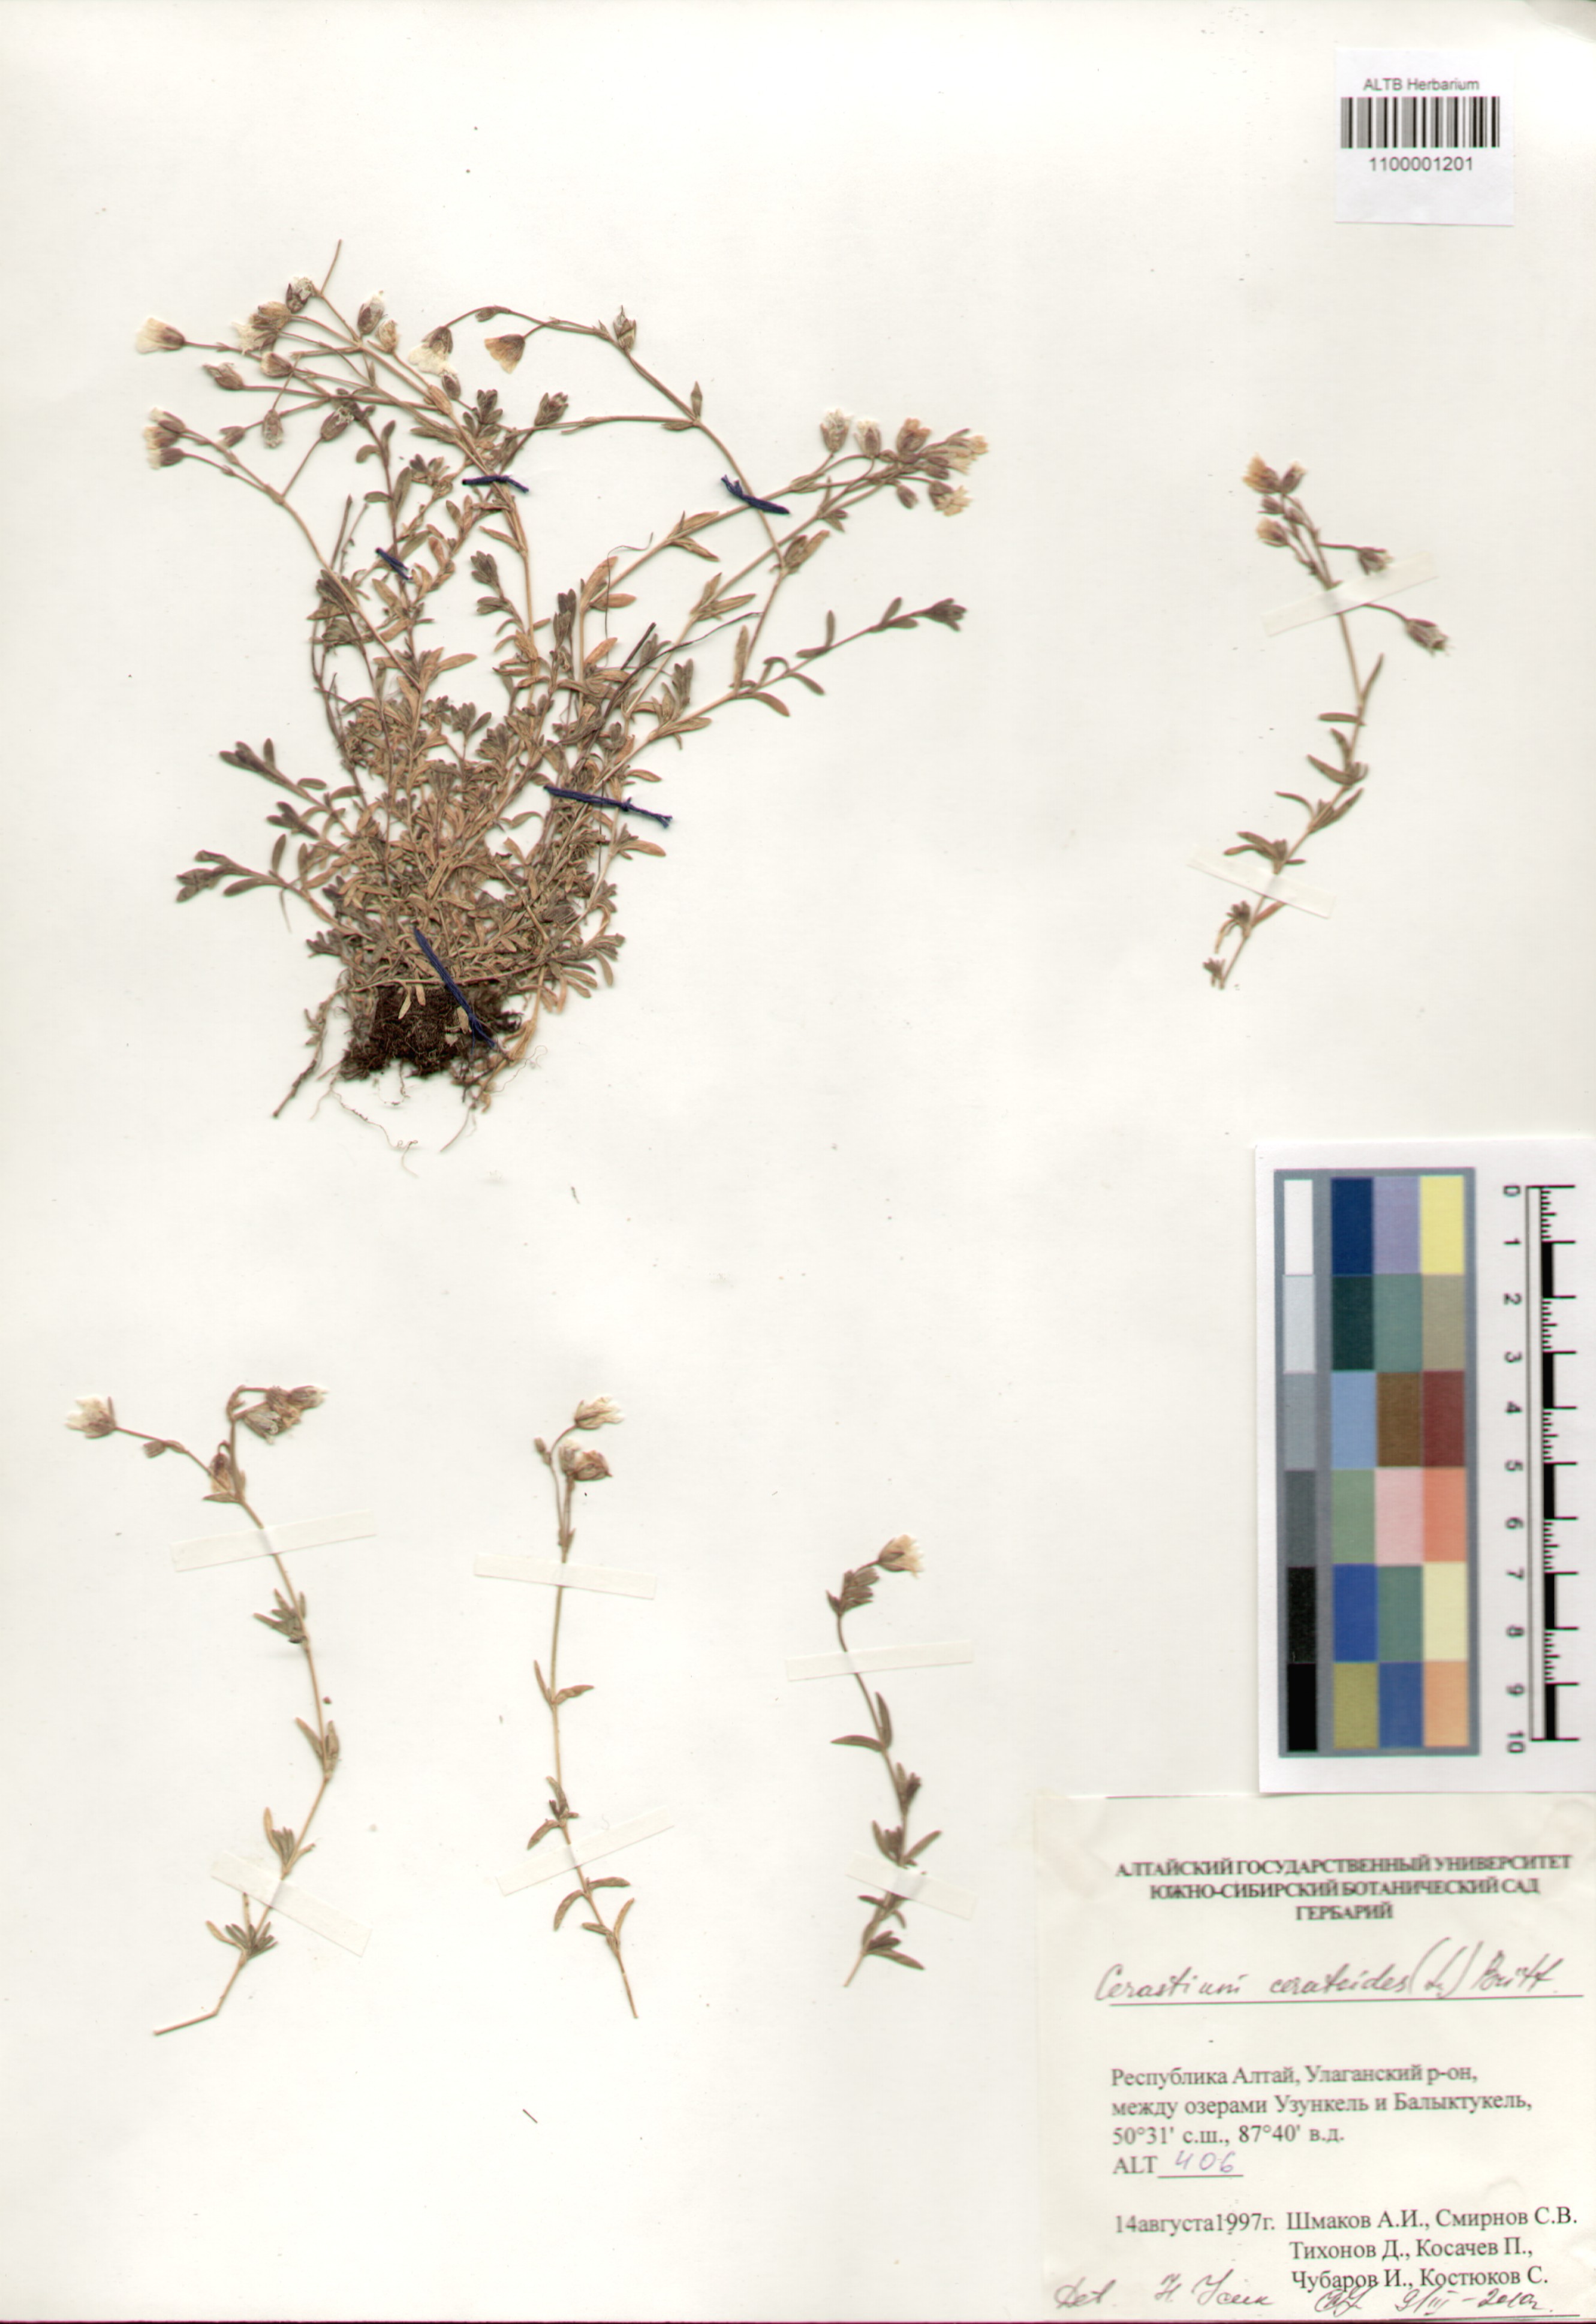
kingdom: Plantae
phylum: Tracheophyta
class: Magnoliopsida
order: Caryophyllales
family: Caryophyllaceae
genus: Dichodon
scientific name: Dichodon cerastoides
